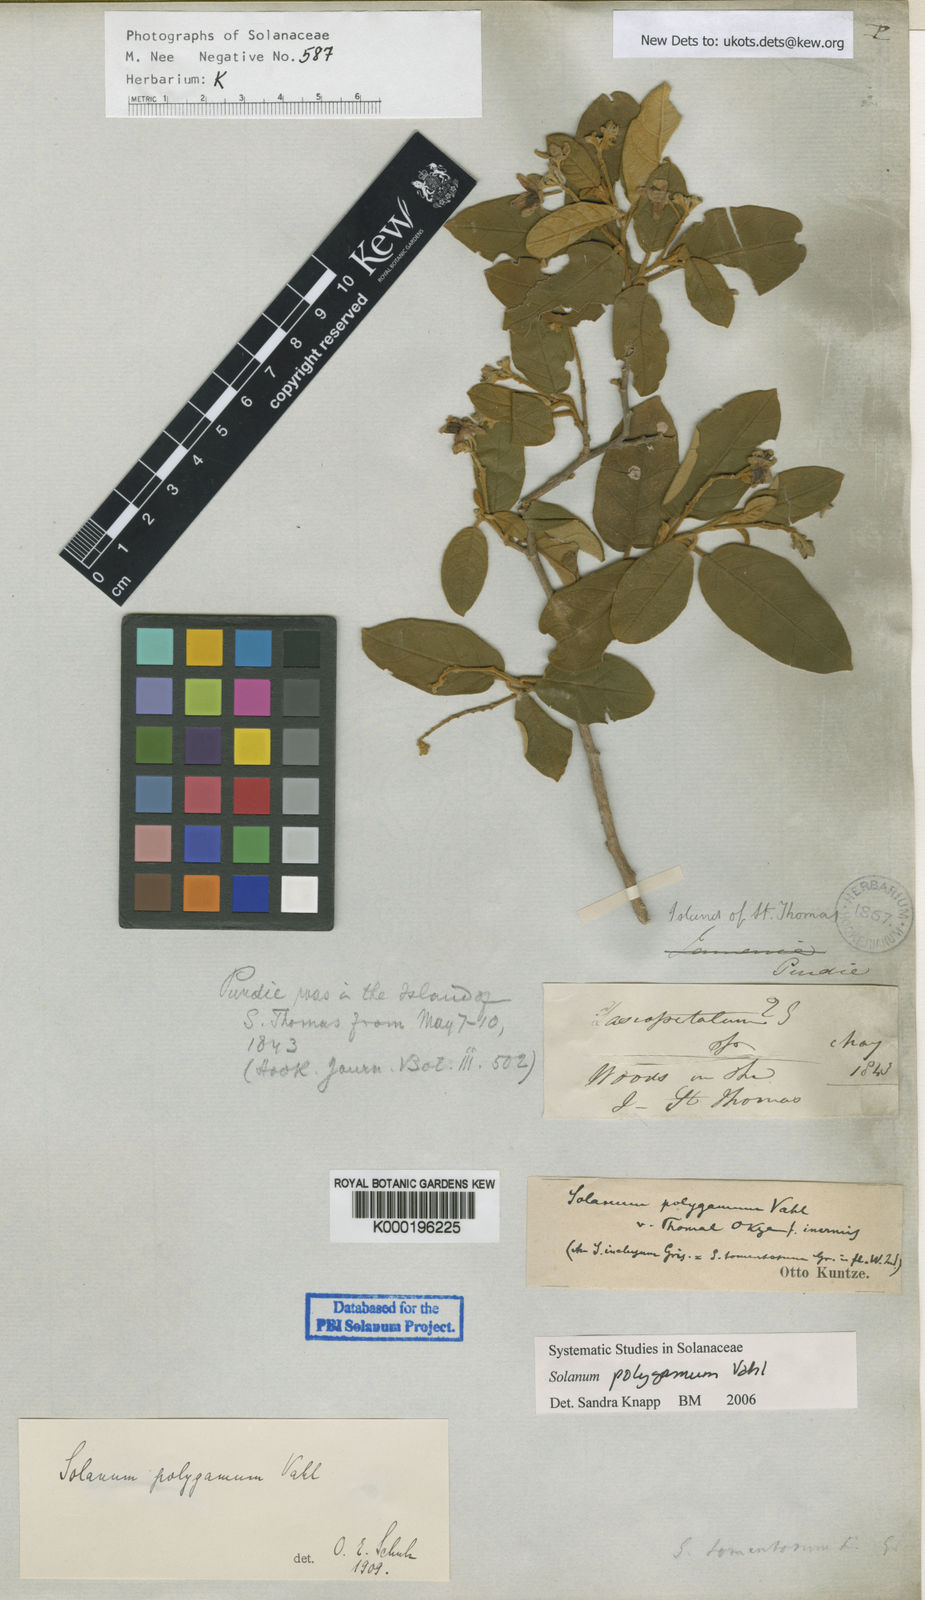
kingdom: Plantae
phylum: Tracheophyta
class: Magnoliopsida
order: Solanales
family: Solanaceae
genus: Solanum
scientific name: Solanum polygamum
